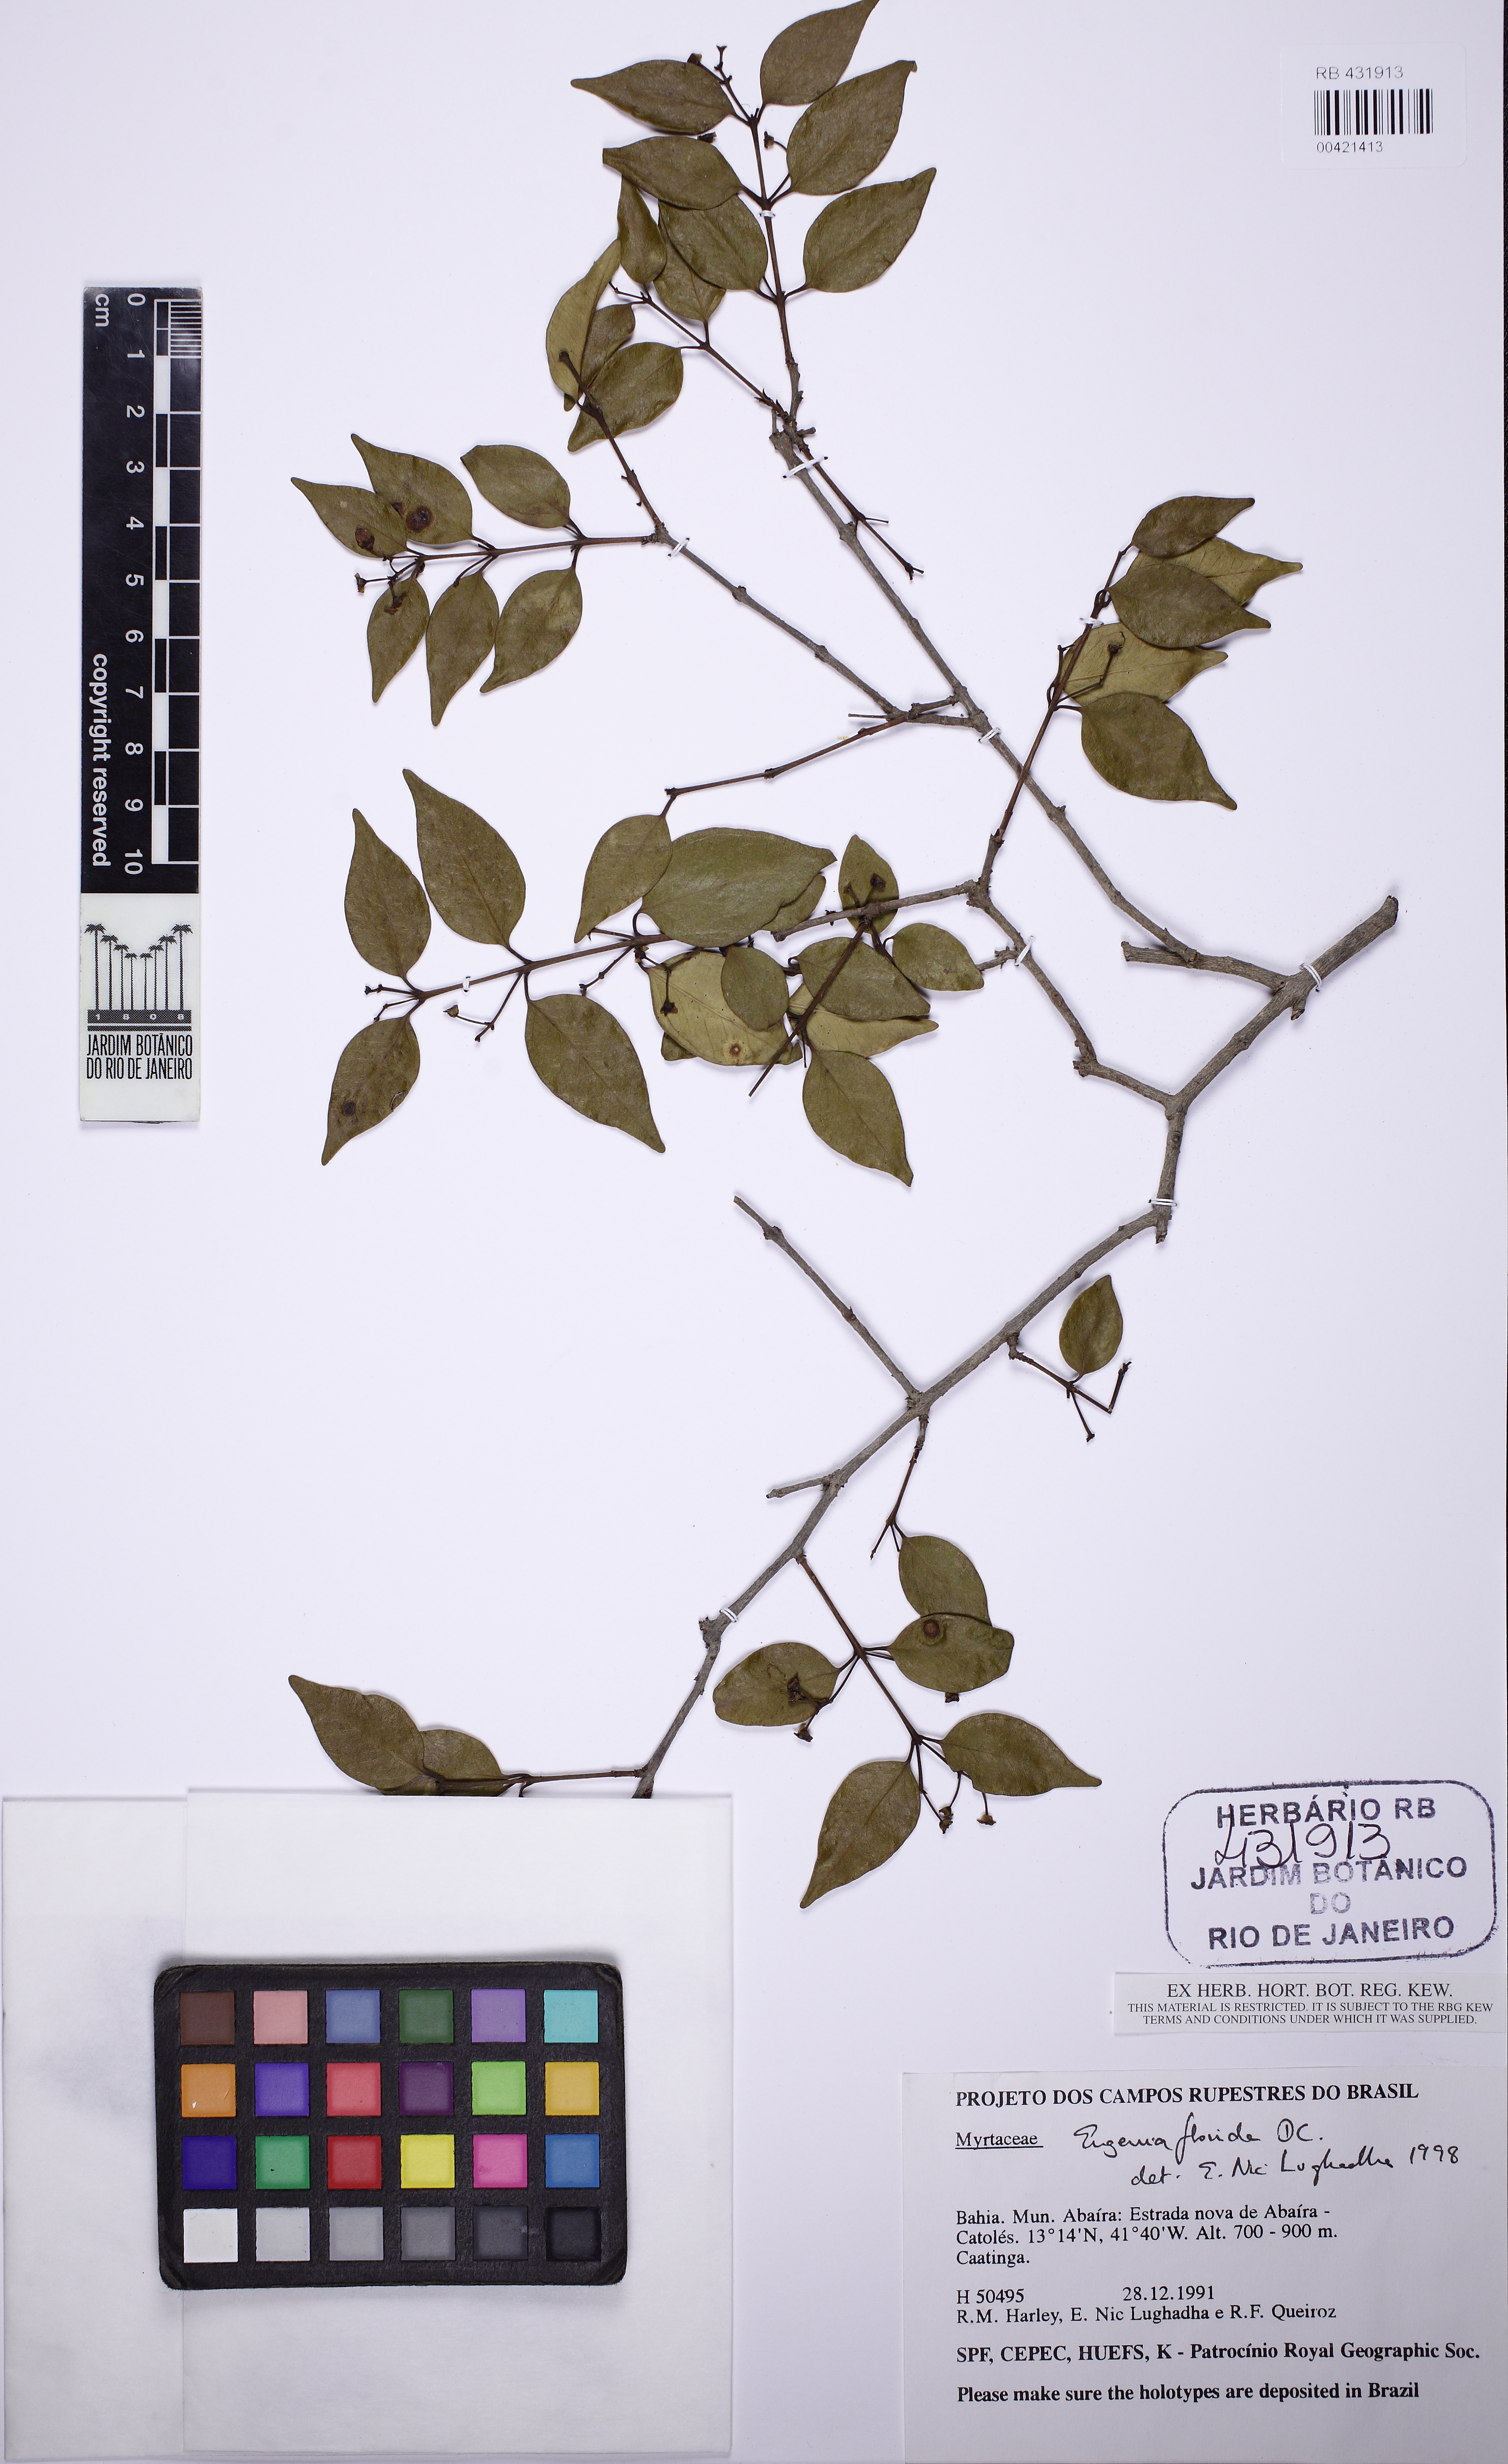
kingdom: Plantae
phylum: Tracheophyta
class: Magnoliopsida
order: Myrtales
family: Myrtaceae
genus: Eugenia
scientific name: Eugenia florida
